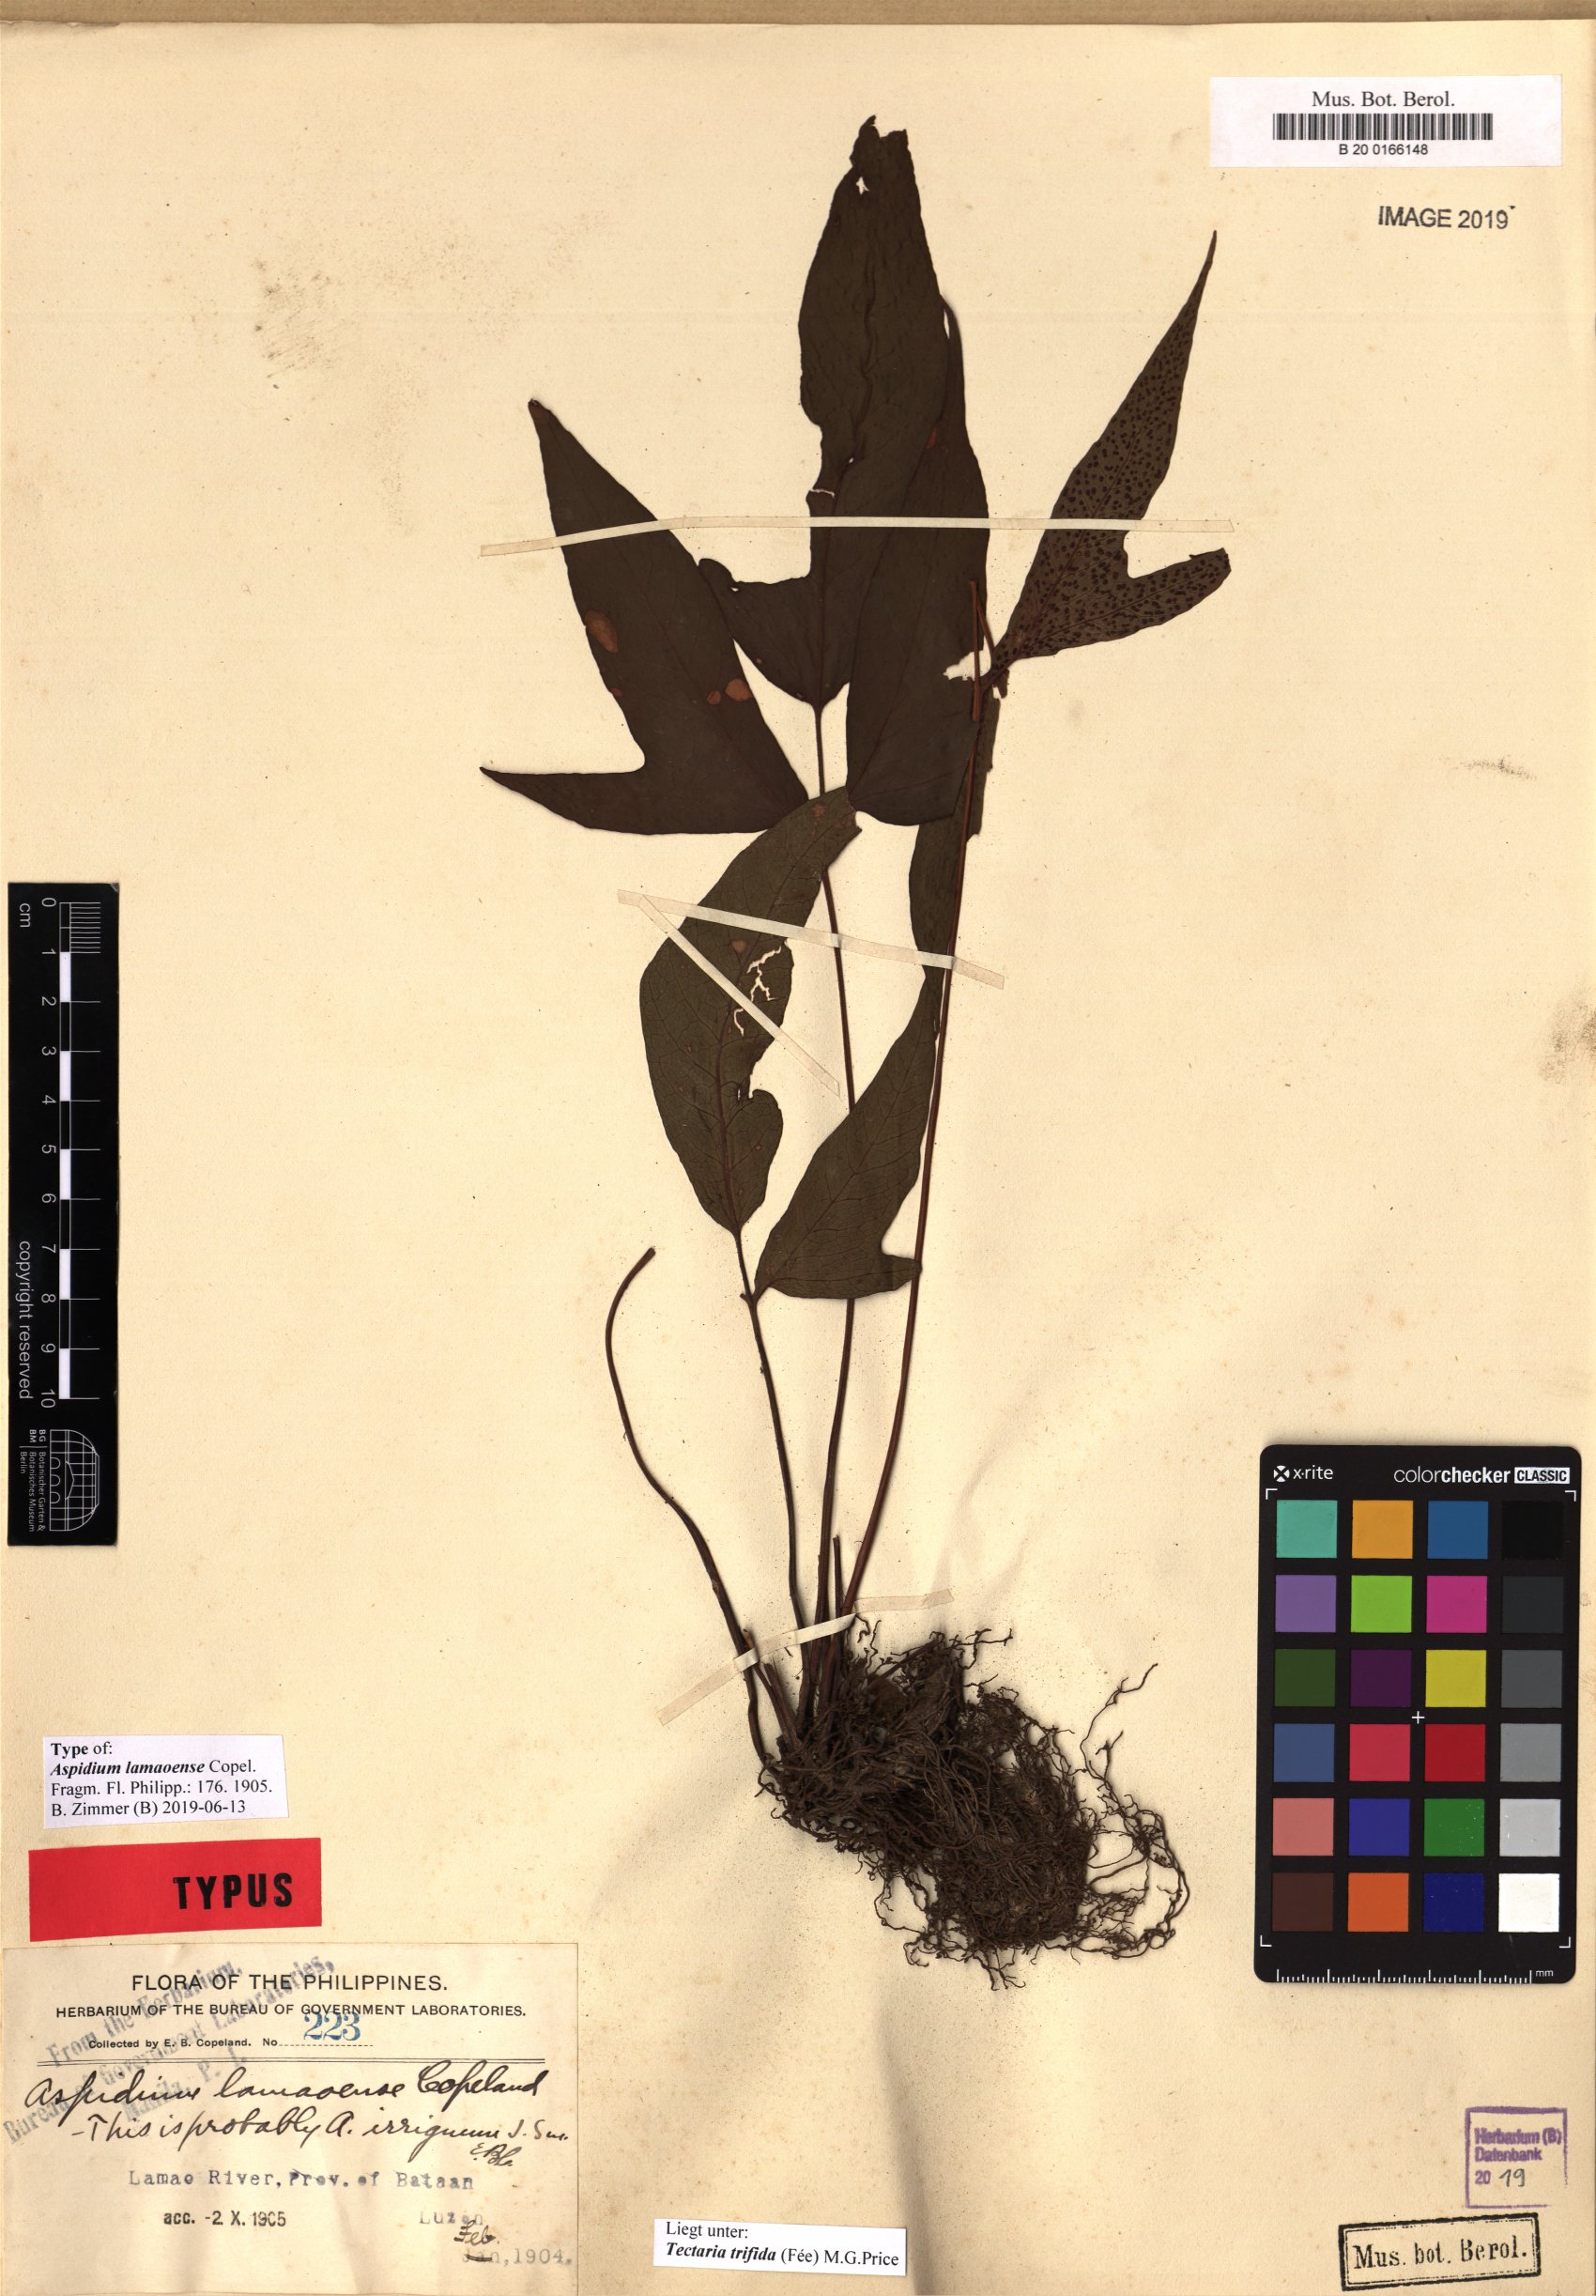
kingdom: Plantae
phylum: Tracheophyta
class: Polypodiopsida
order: Polypodiales
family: Tectariaceae
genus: Tectaria
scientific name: Tectaria trifida
